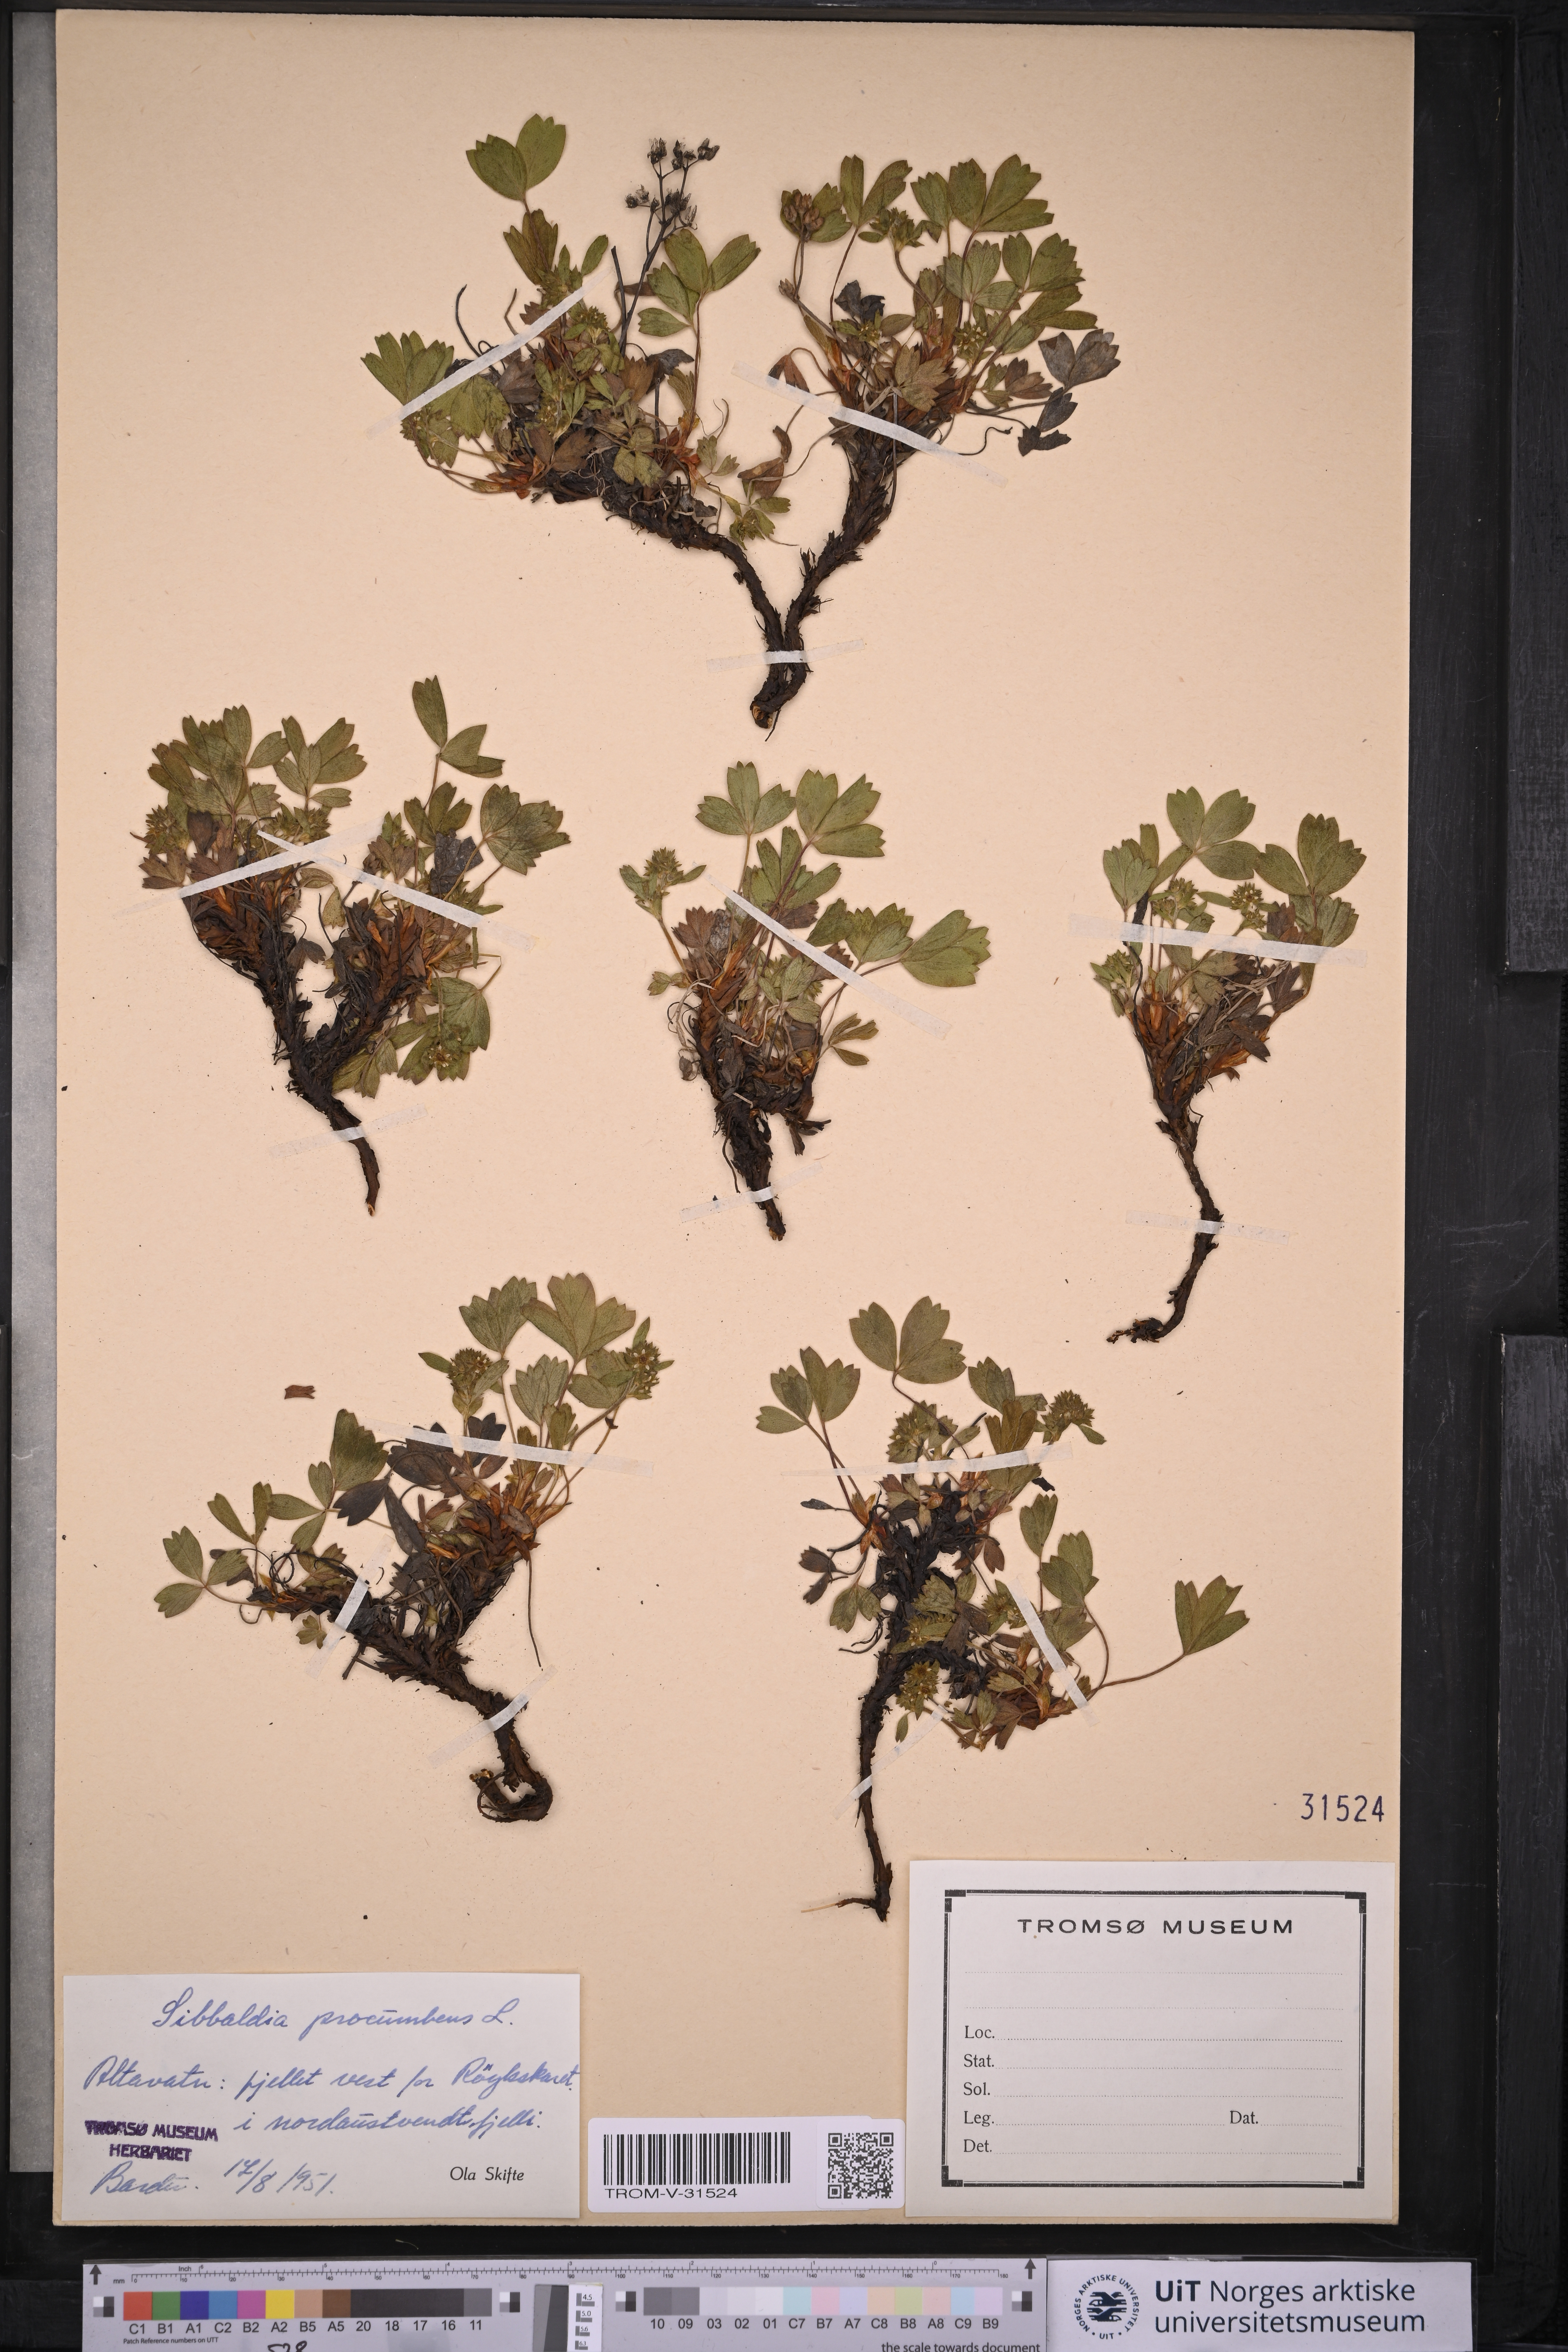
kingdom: Plantae
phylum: Tracheophyta
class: Magnoliopsida
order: Rosales
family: Rosaceae
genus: Sibbaldia
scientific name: Sibbaldia procumbens
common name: Creeping sibbaldia
